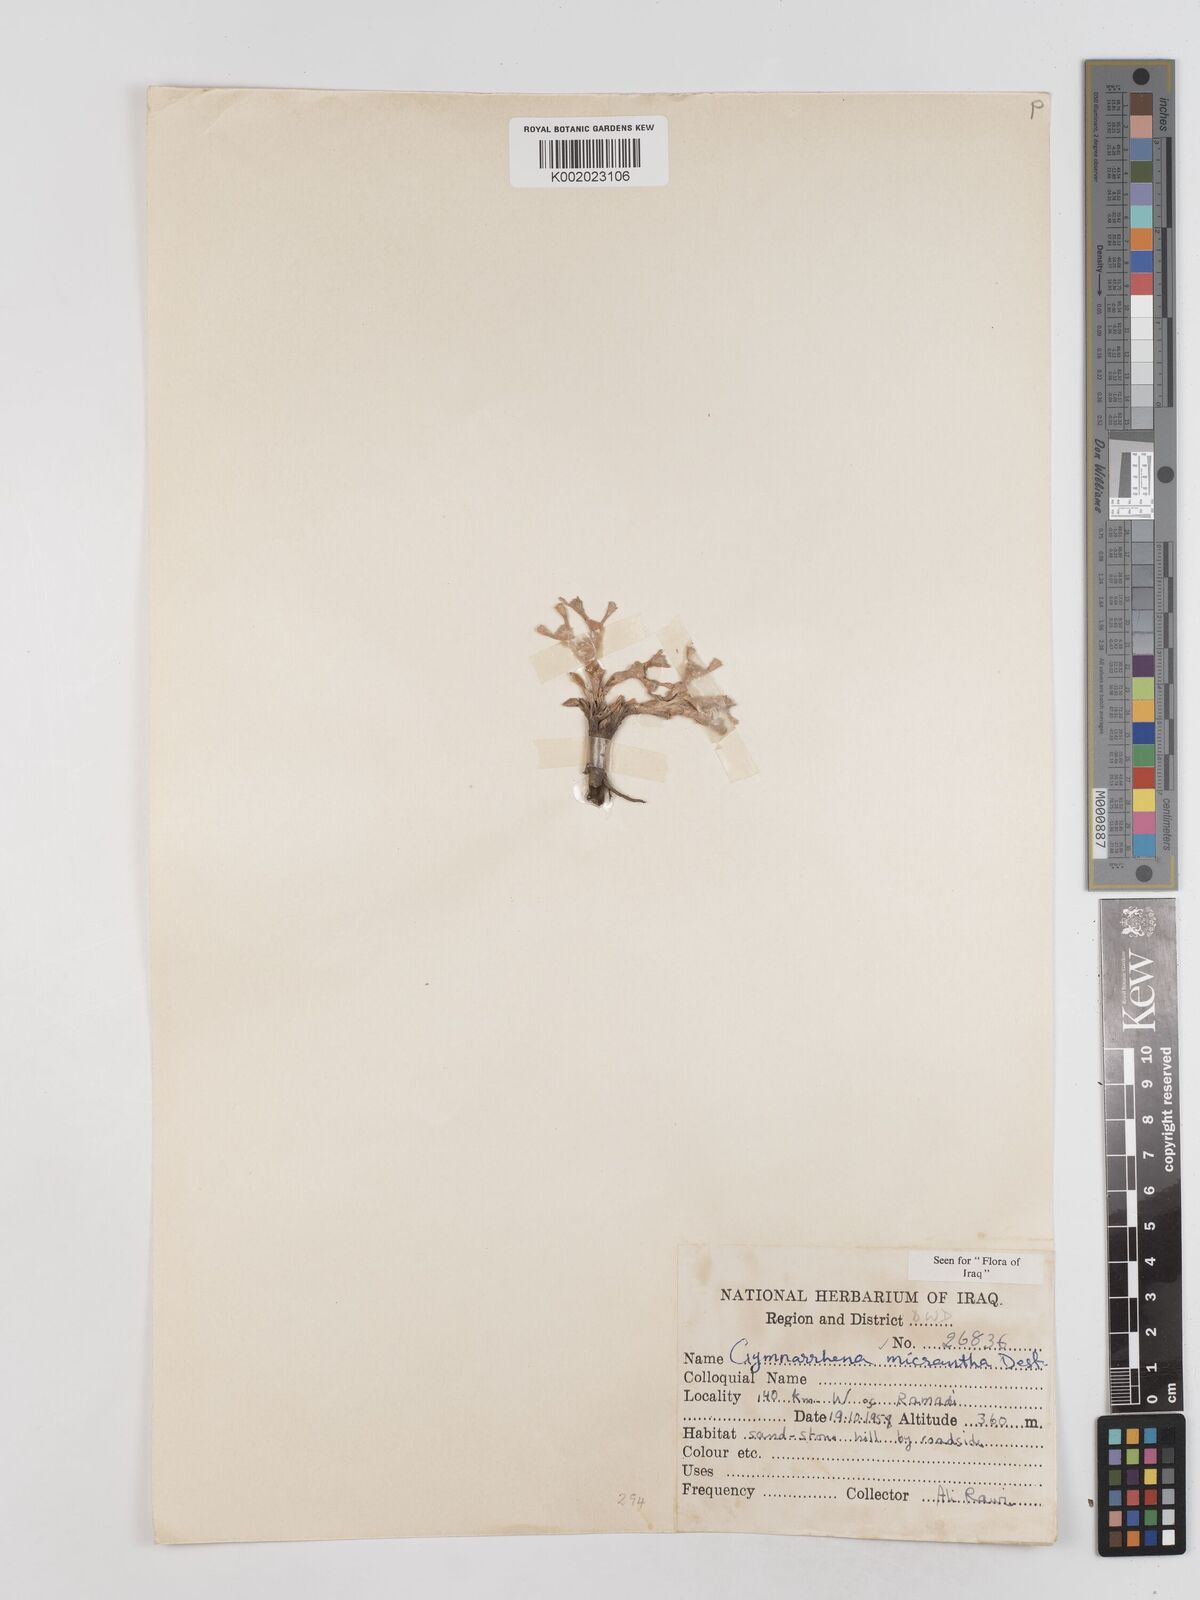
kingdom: Plantae
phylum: Tracheophyta
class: Magnoliopsida
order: Asterales
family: Asteraceae
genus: Gymnarrhena
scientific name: Gymnarrhena micrantha
